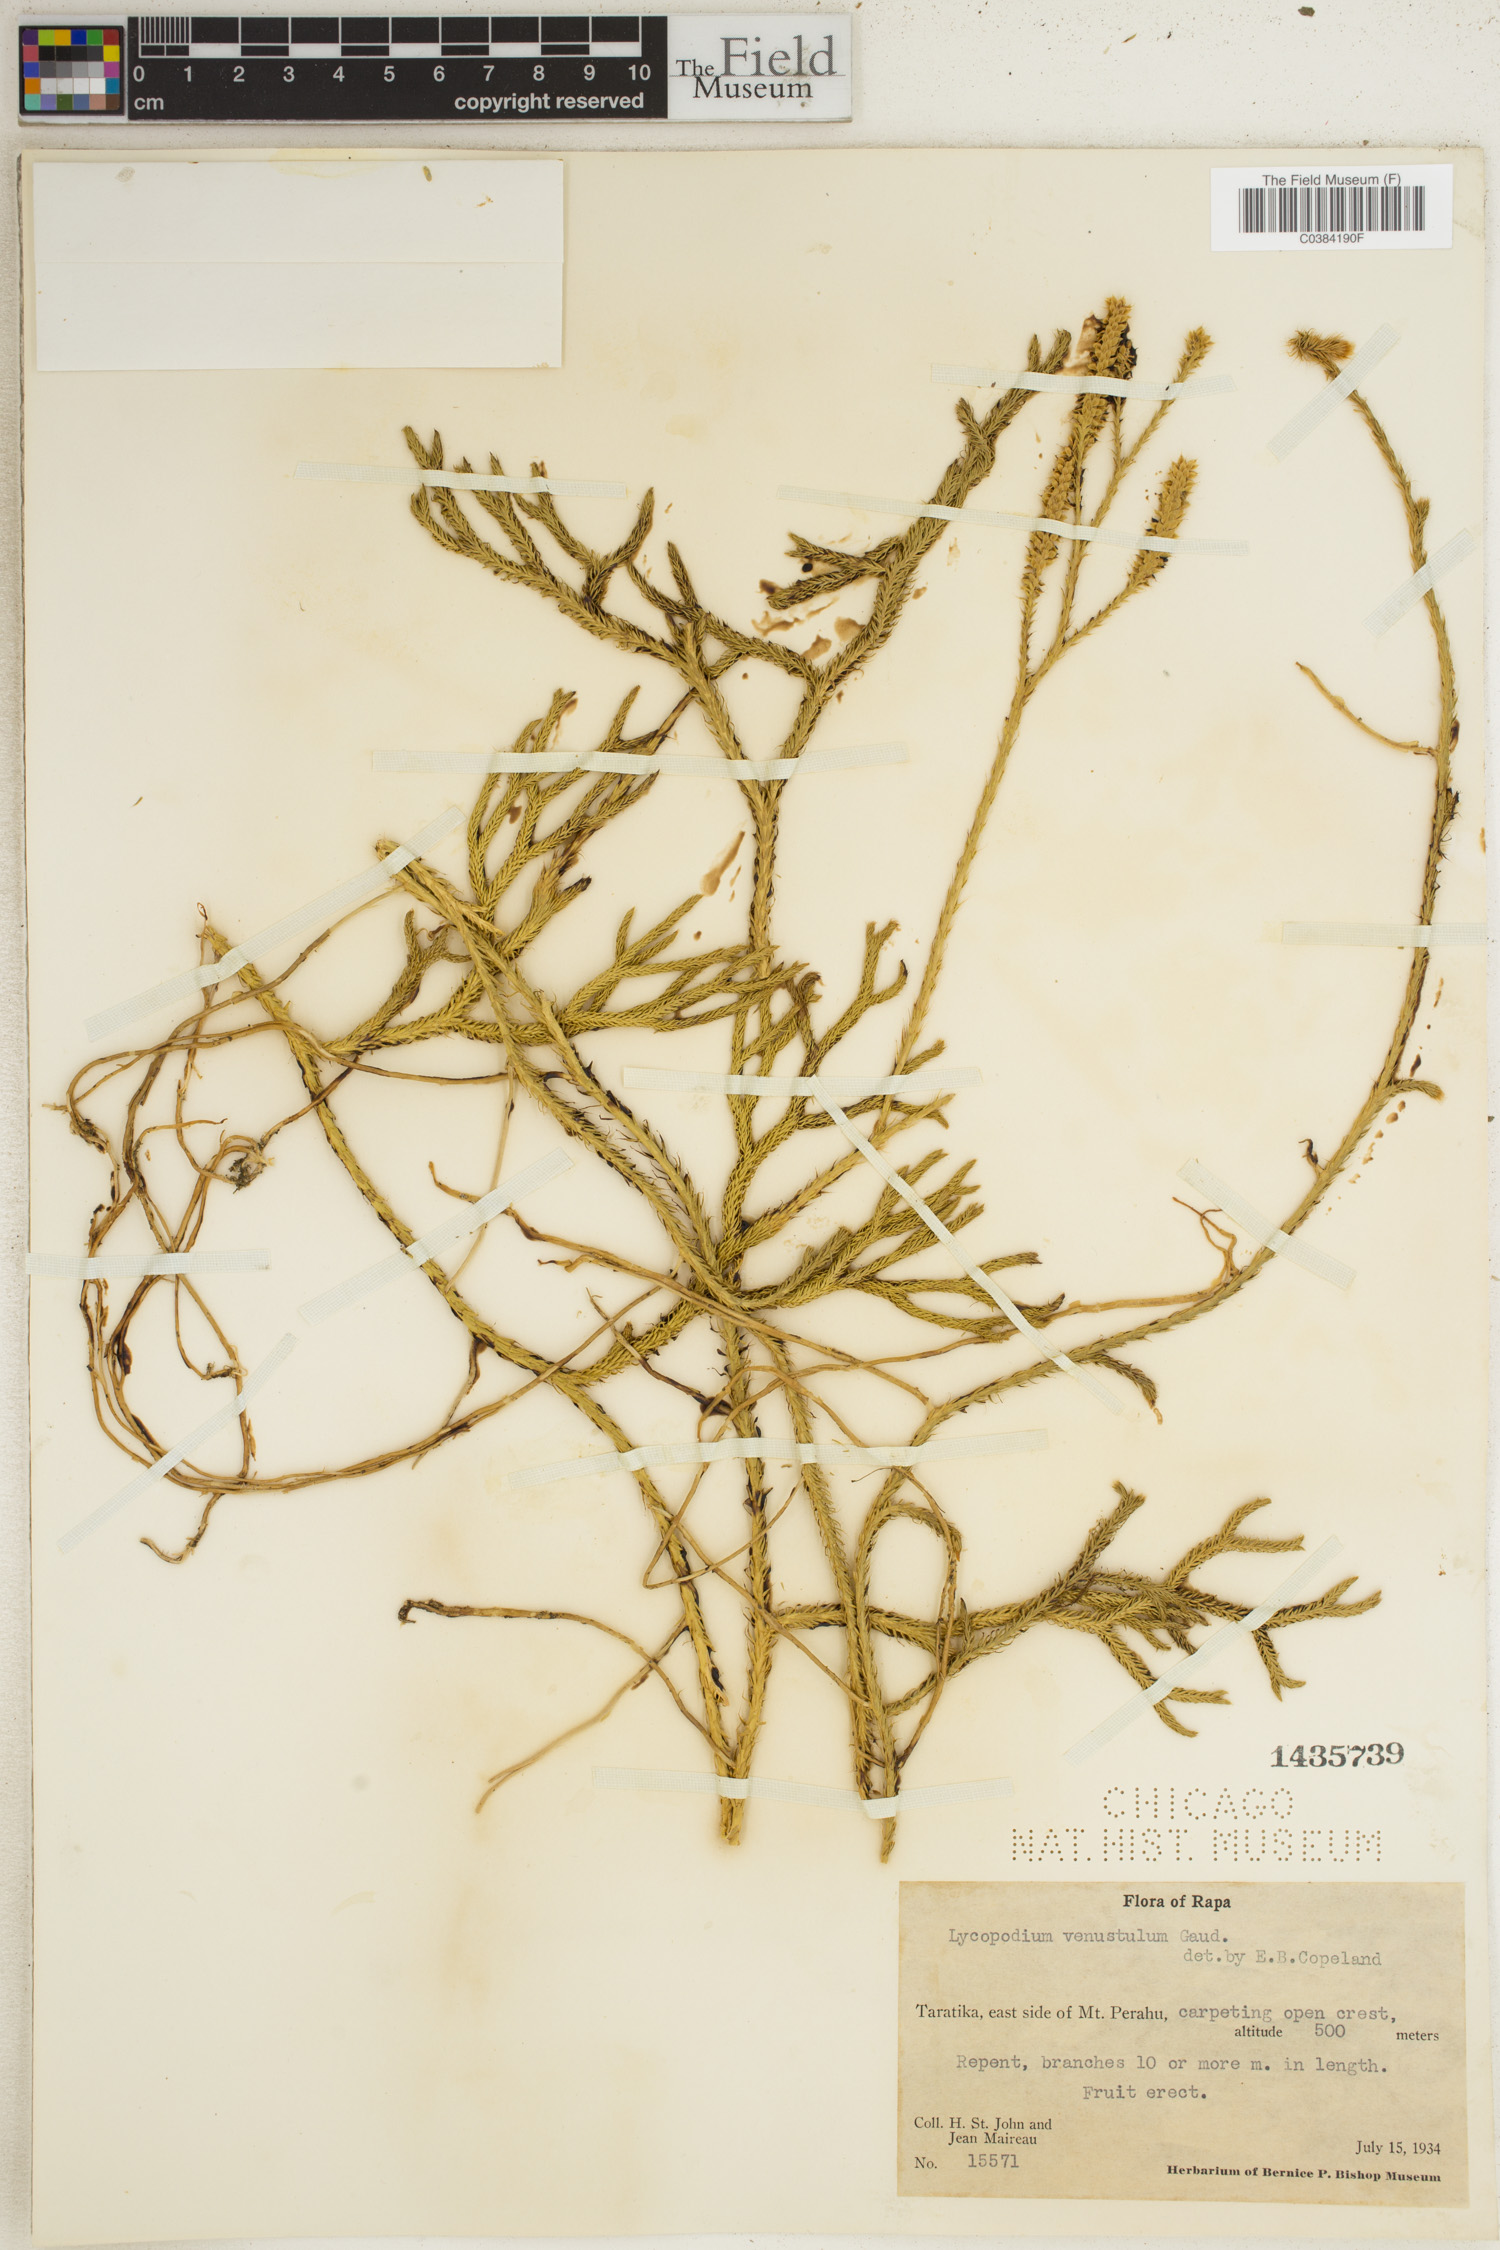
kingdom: Plantae
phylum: Tracheophyta
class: Lycopodiopsida
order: Lycopodiales
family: Lycopodiaceae
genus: Lycopodium
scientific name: Lycopodium venustulum
